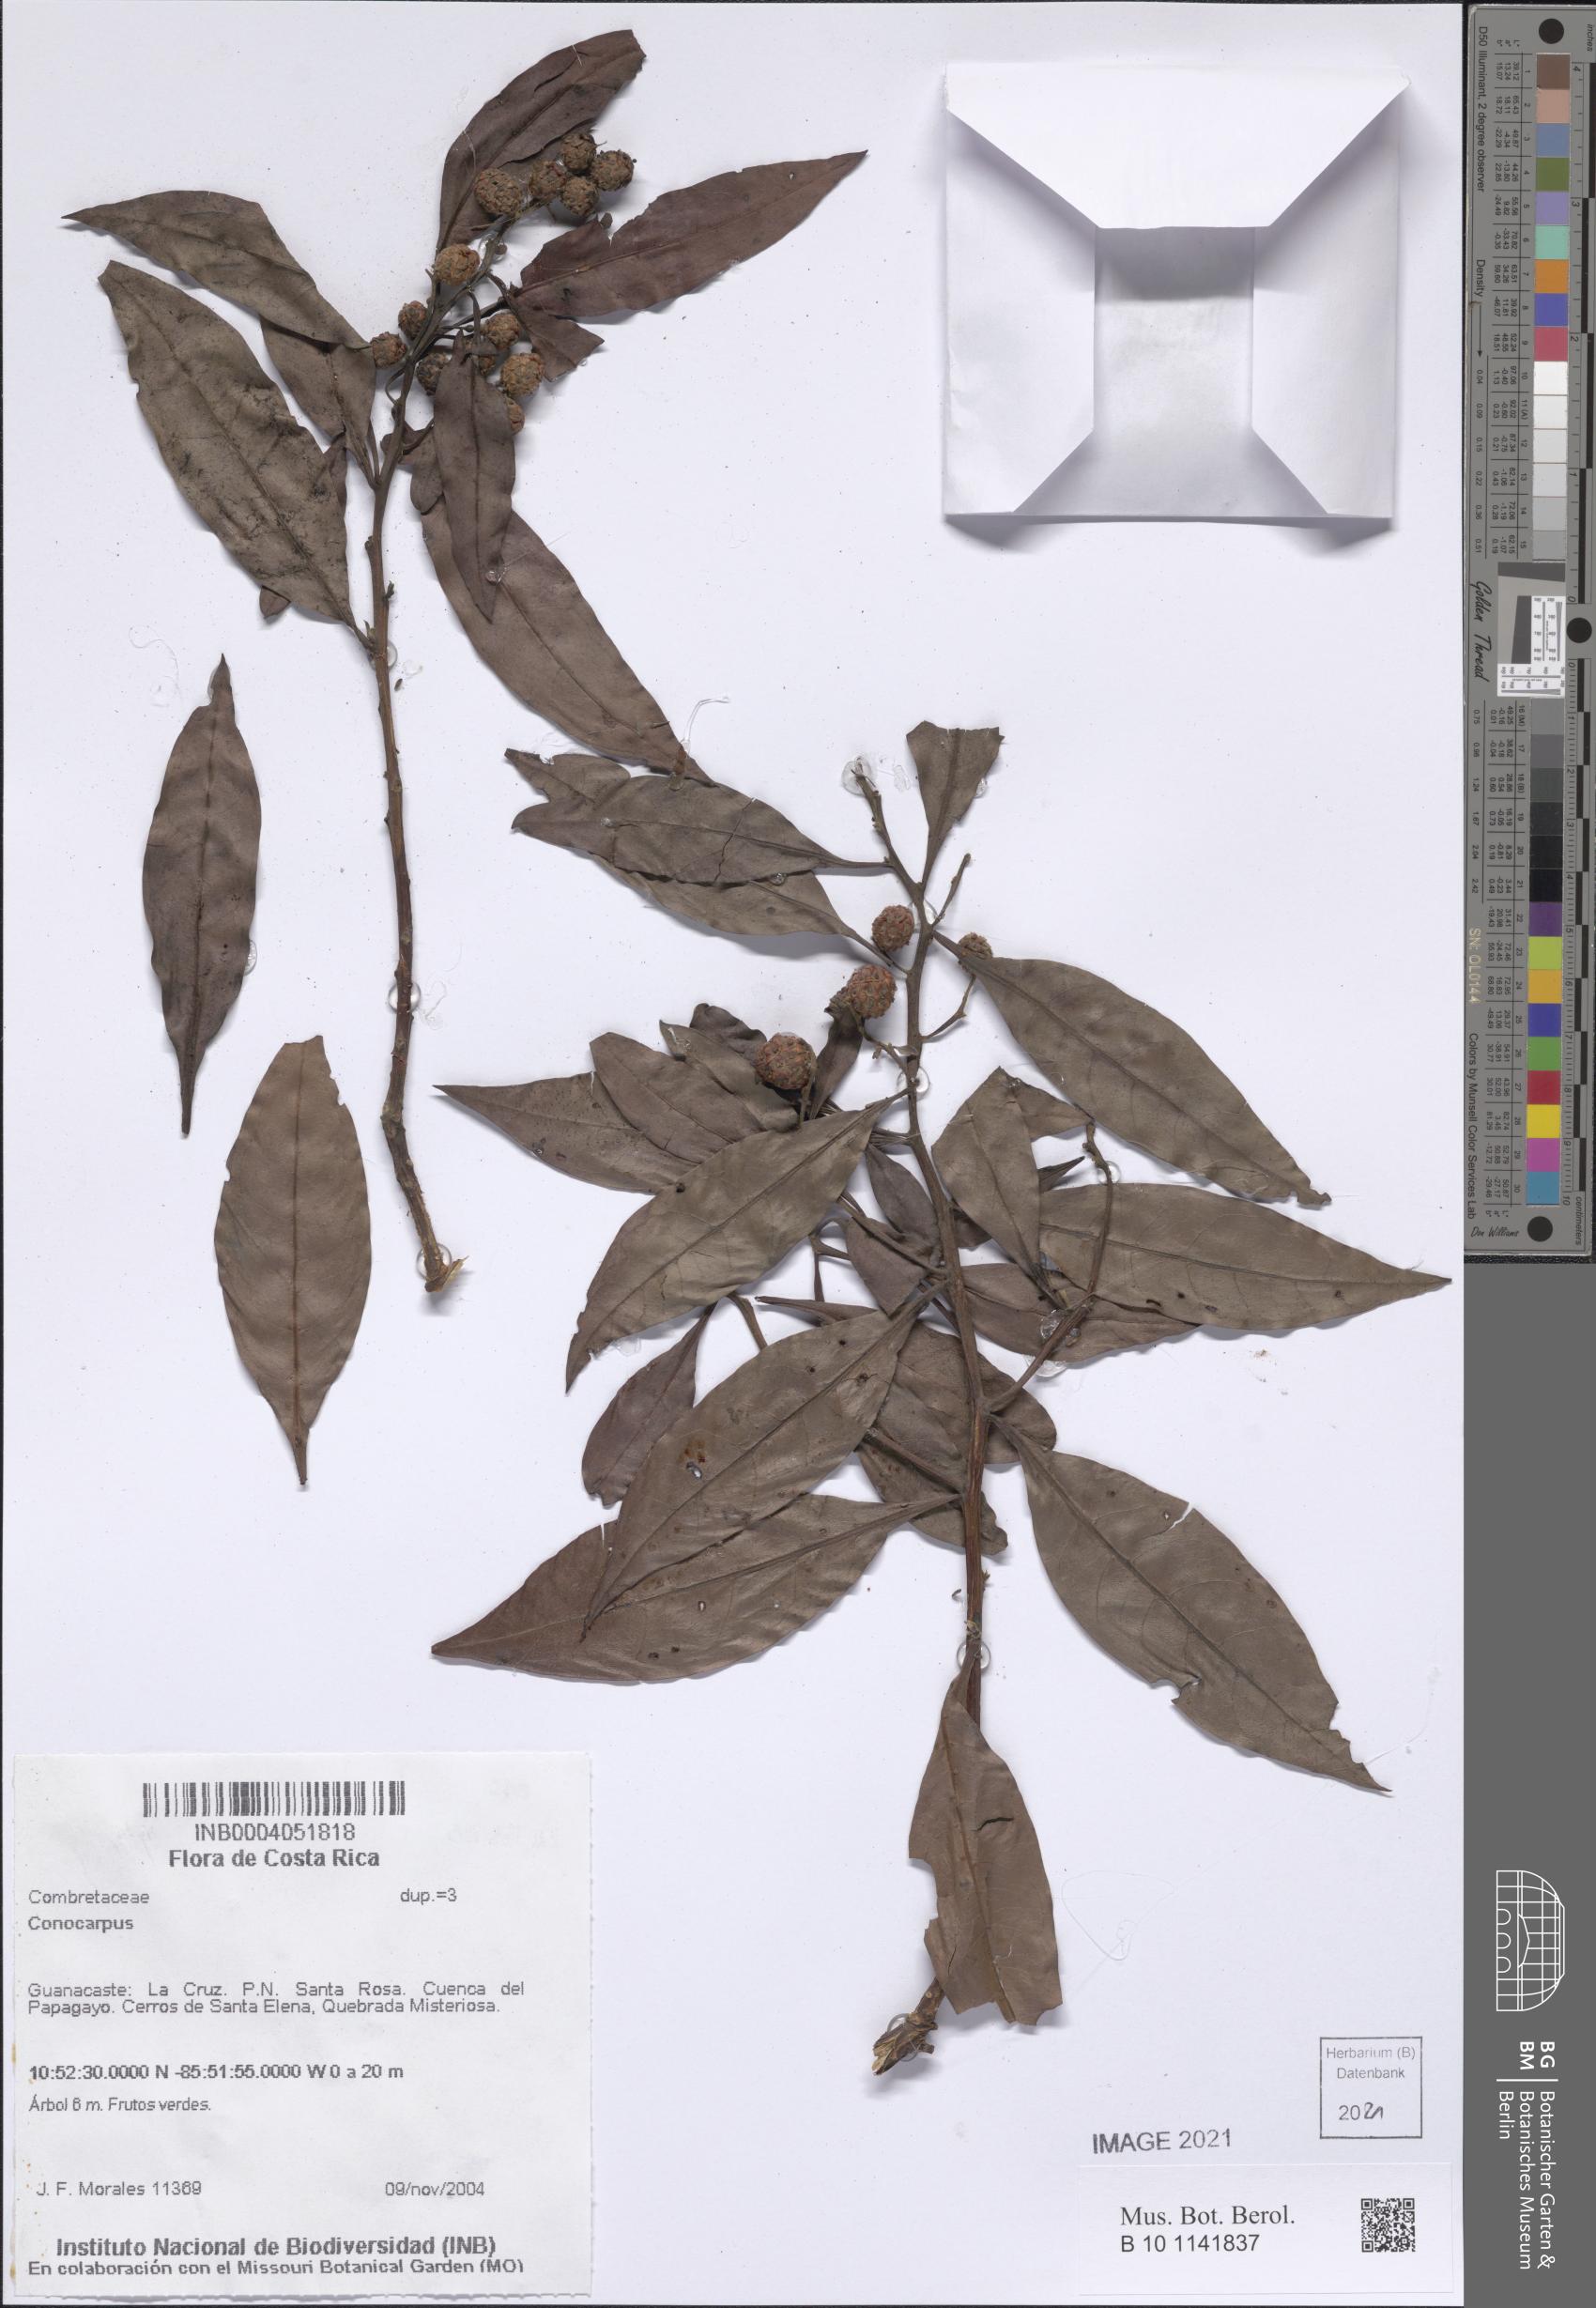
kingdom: Plantae
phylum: Tracheophyta
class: Magnoliopsida
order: Myrtales
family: Combretaceae
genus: Conocarpus
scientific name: Conocarpus
